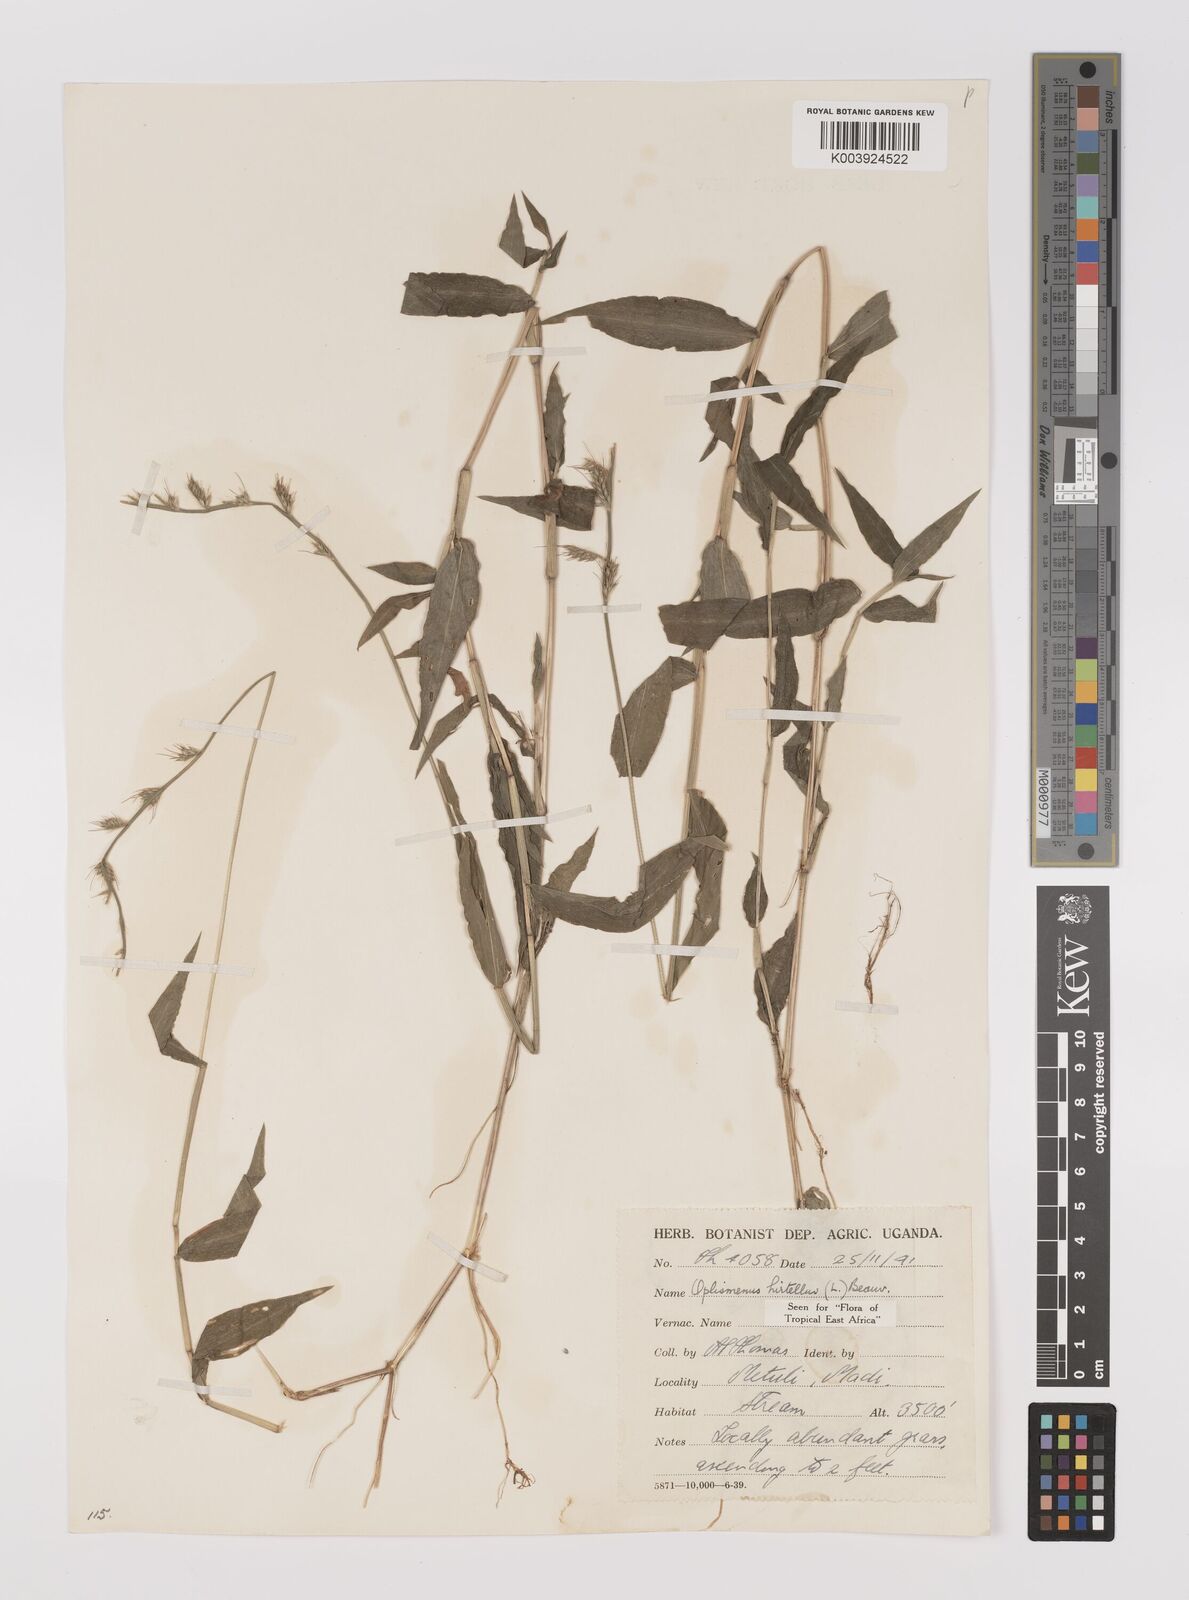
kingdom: Plantae
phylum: Tracheophyta
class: Liliopsida
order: Poales
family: Poaceae
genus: Oplismenus
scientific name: Oplismenus hirtellus
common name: Basketgrass
